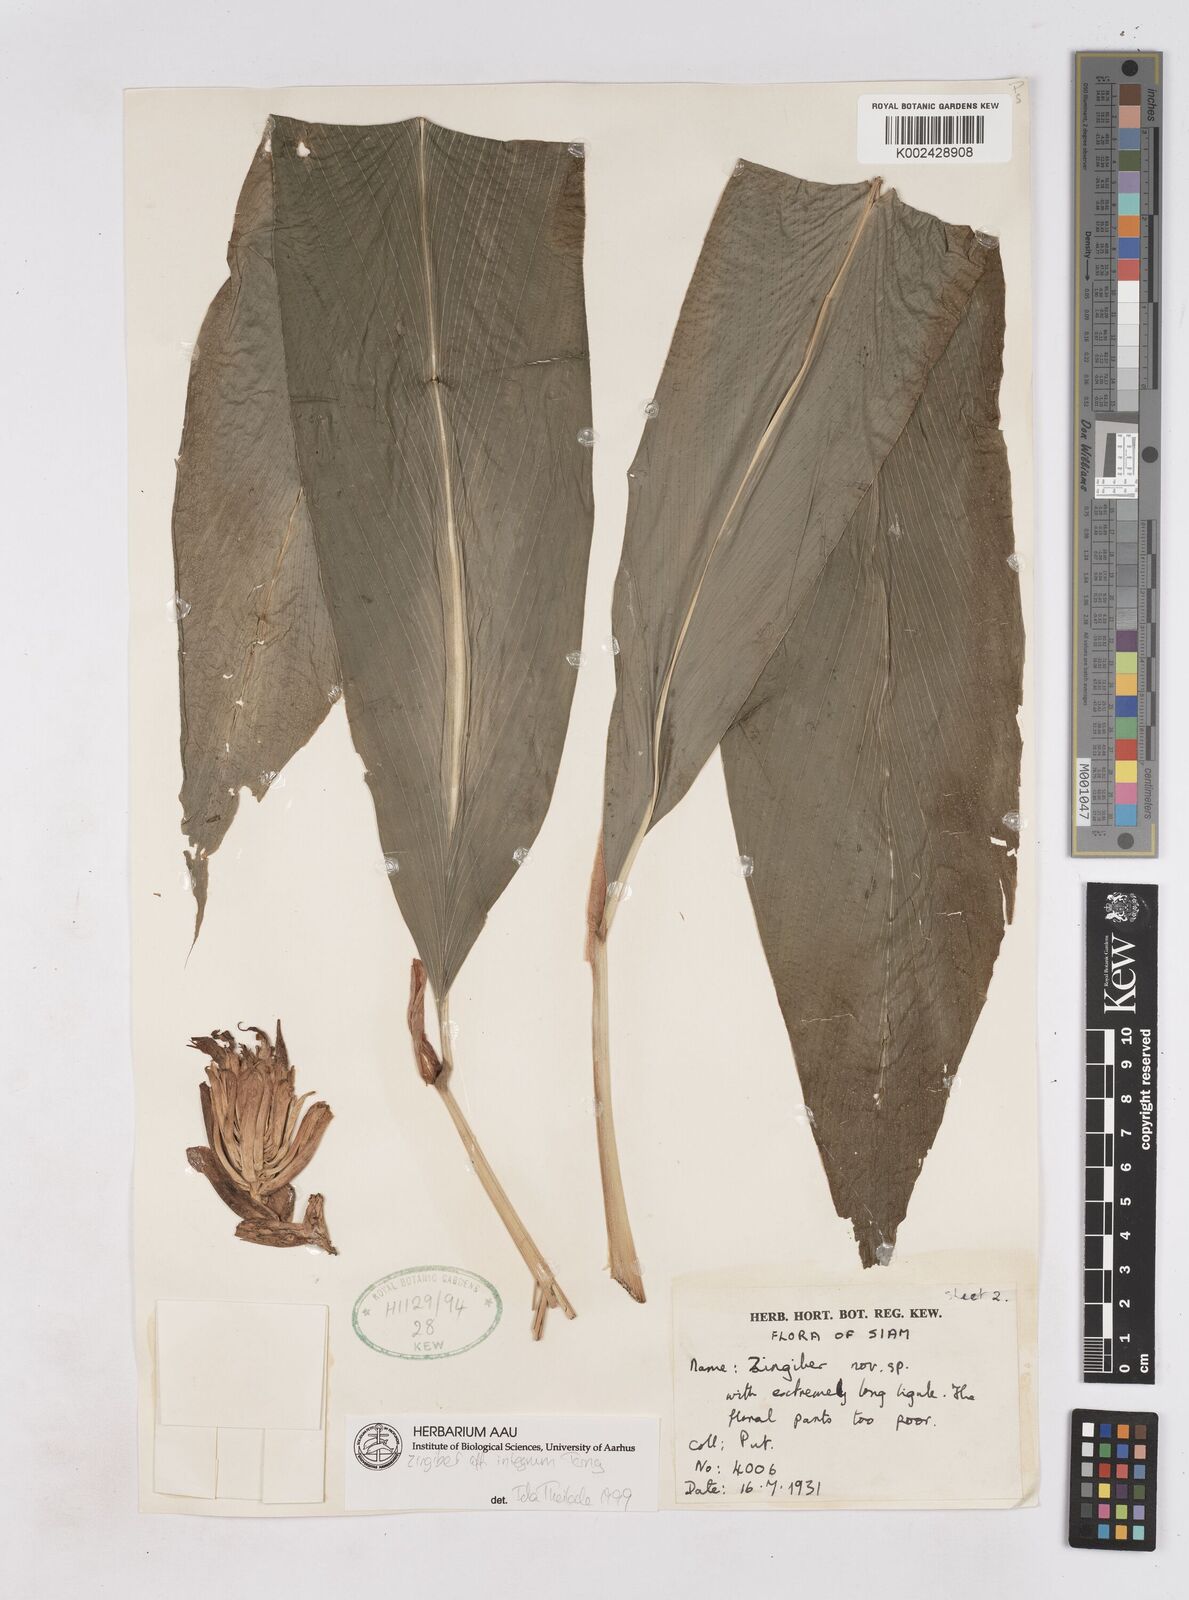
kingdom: Plantae
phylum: Tracheophyta
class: Liliopsida
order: Zingiberales
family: Zingiberaceae
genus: Zingiber
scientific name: Zingiber integrum
